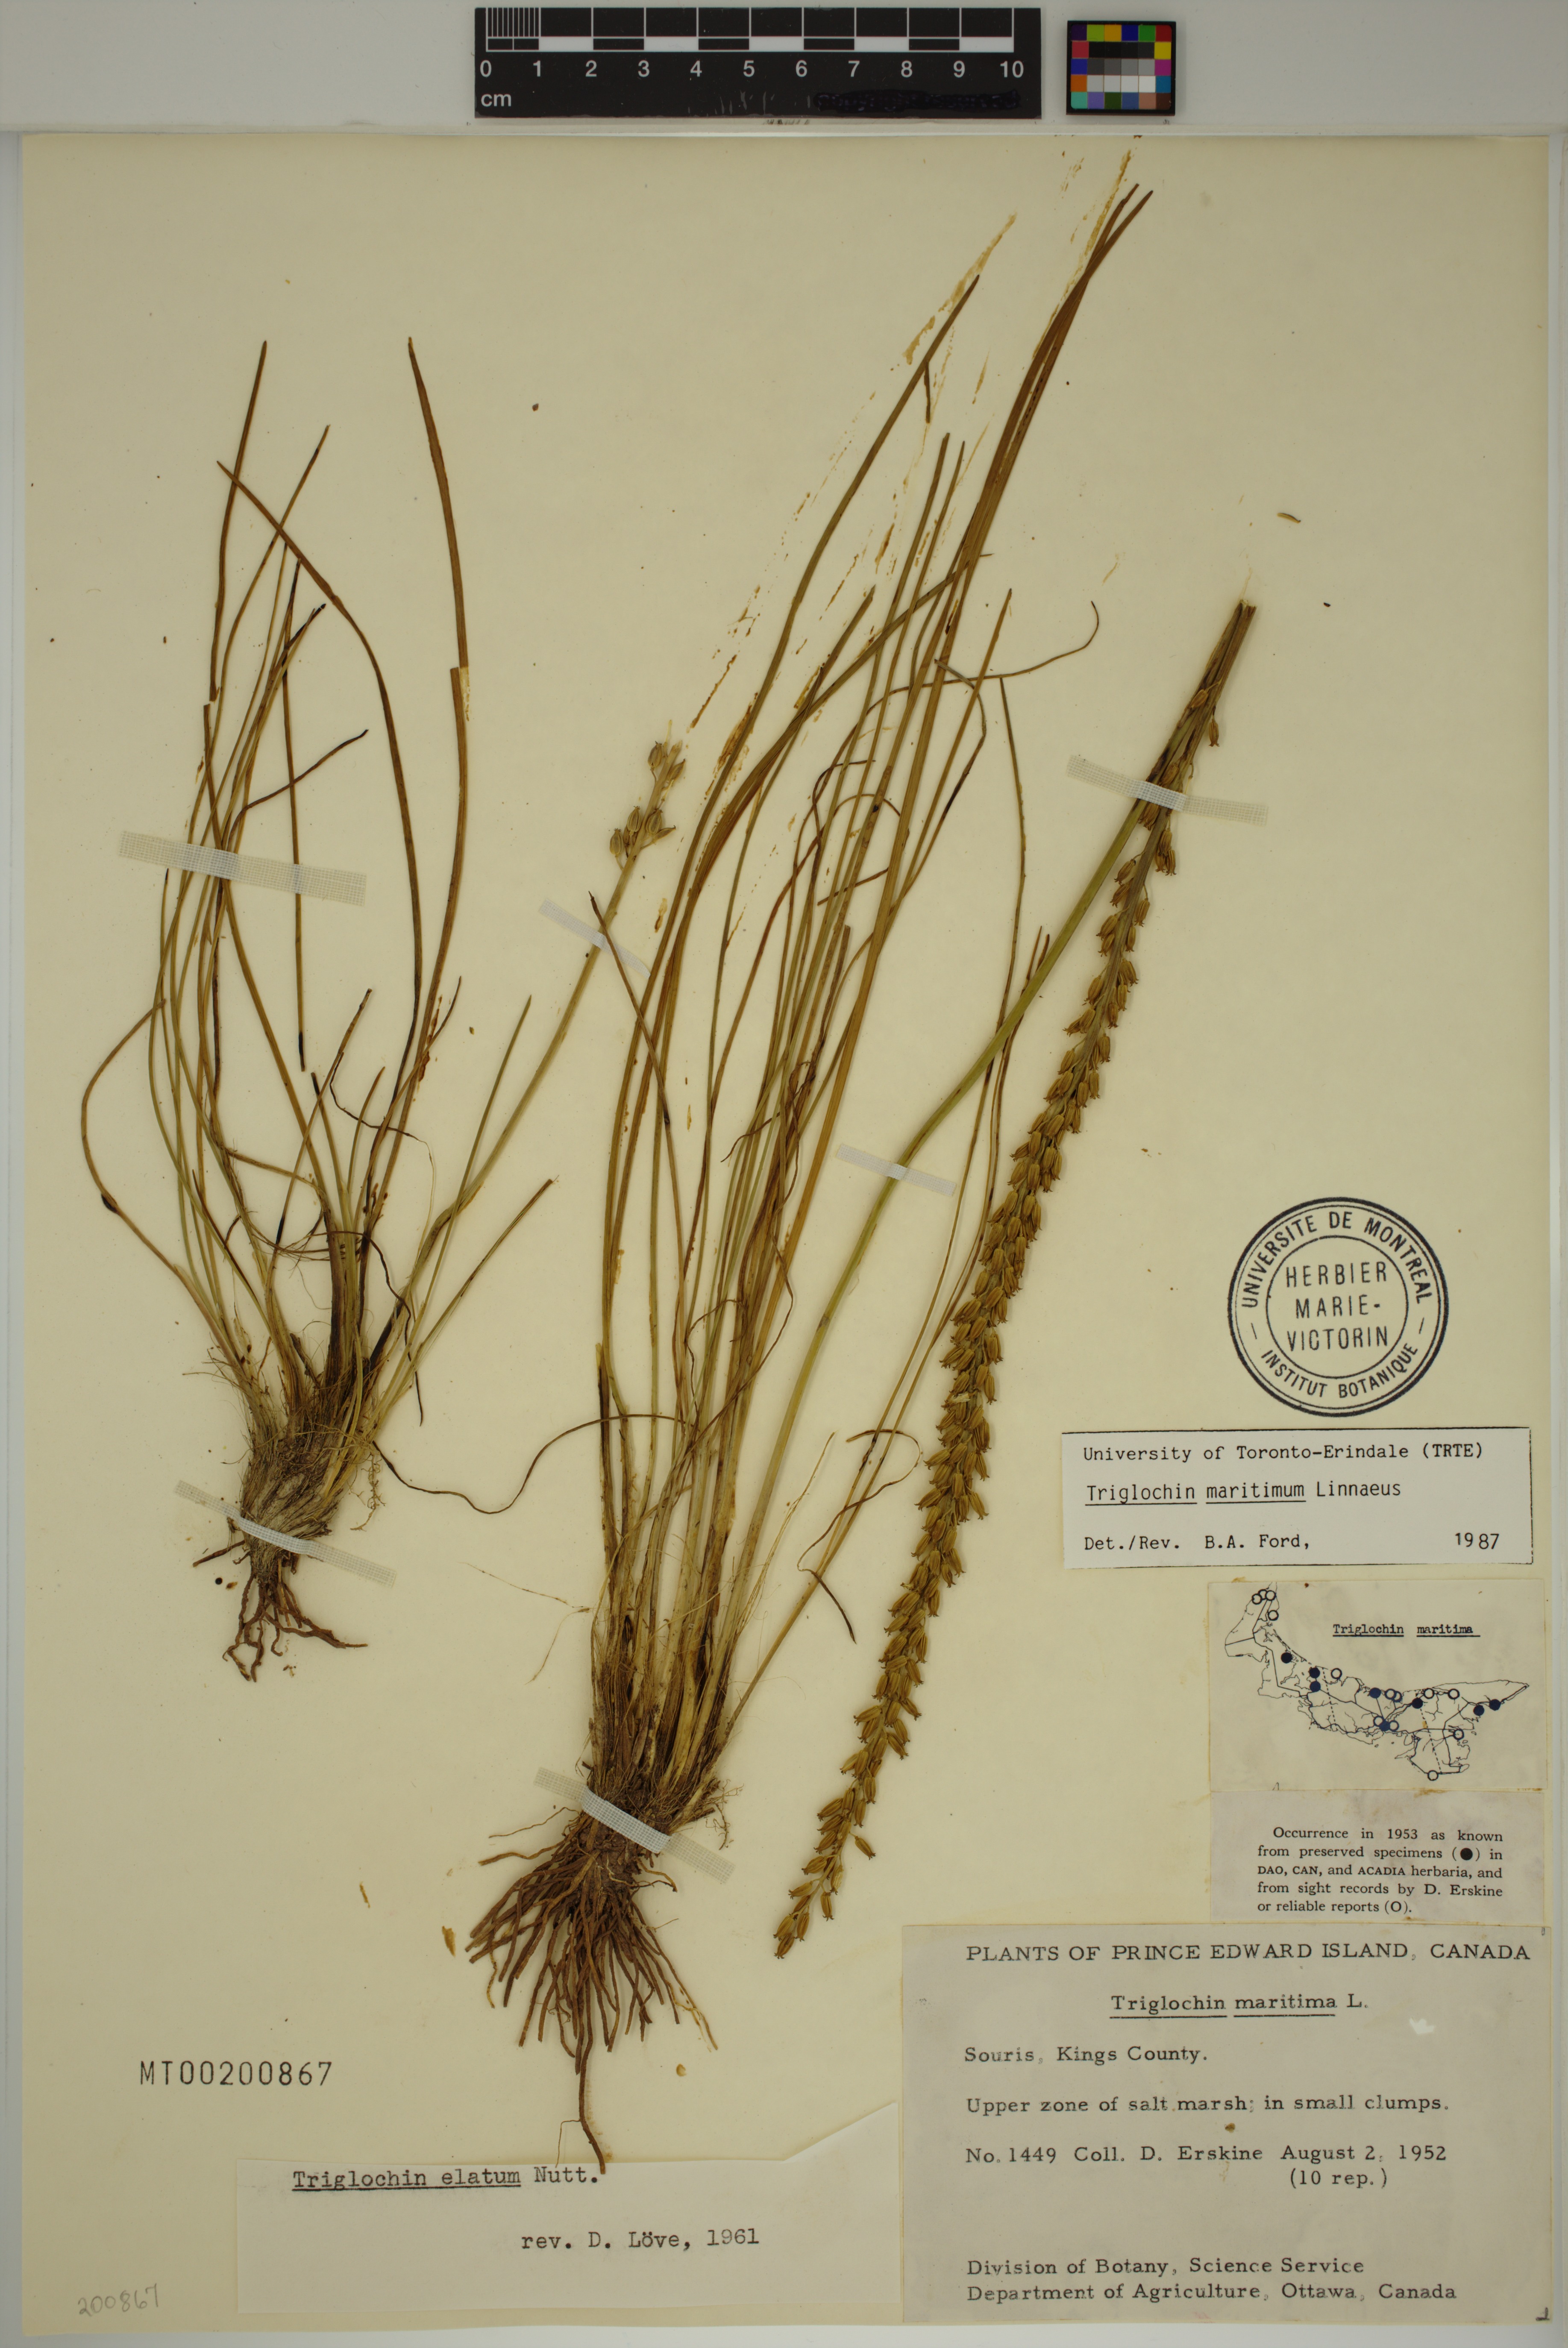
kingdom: Plantae
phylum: Tracheophyta
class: Liliopsida
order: Alismatales
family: Juncaginaceae
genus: Triglochin
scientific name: Triglochin maritima
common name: Sea arrowgrass
